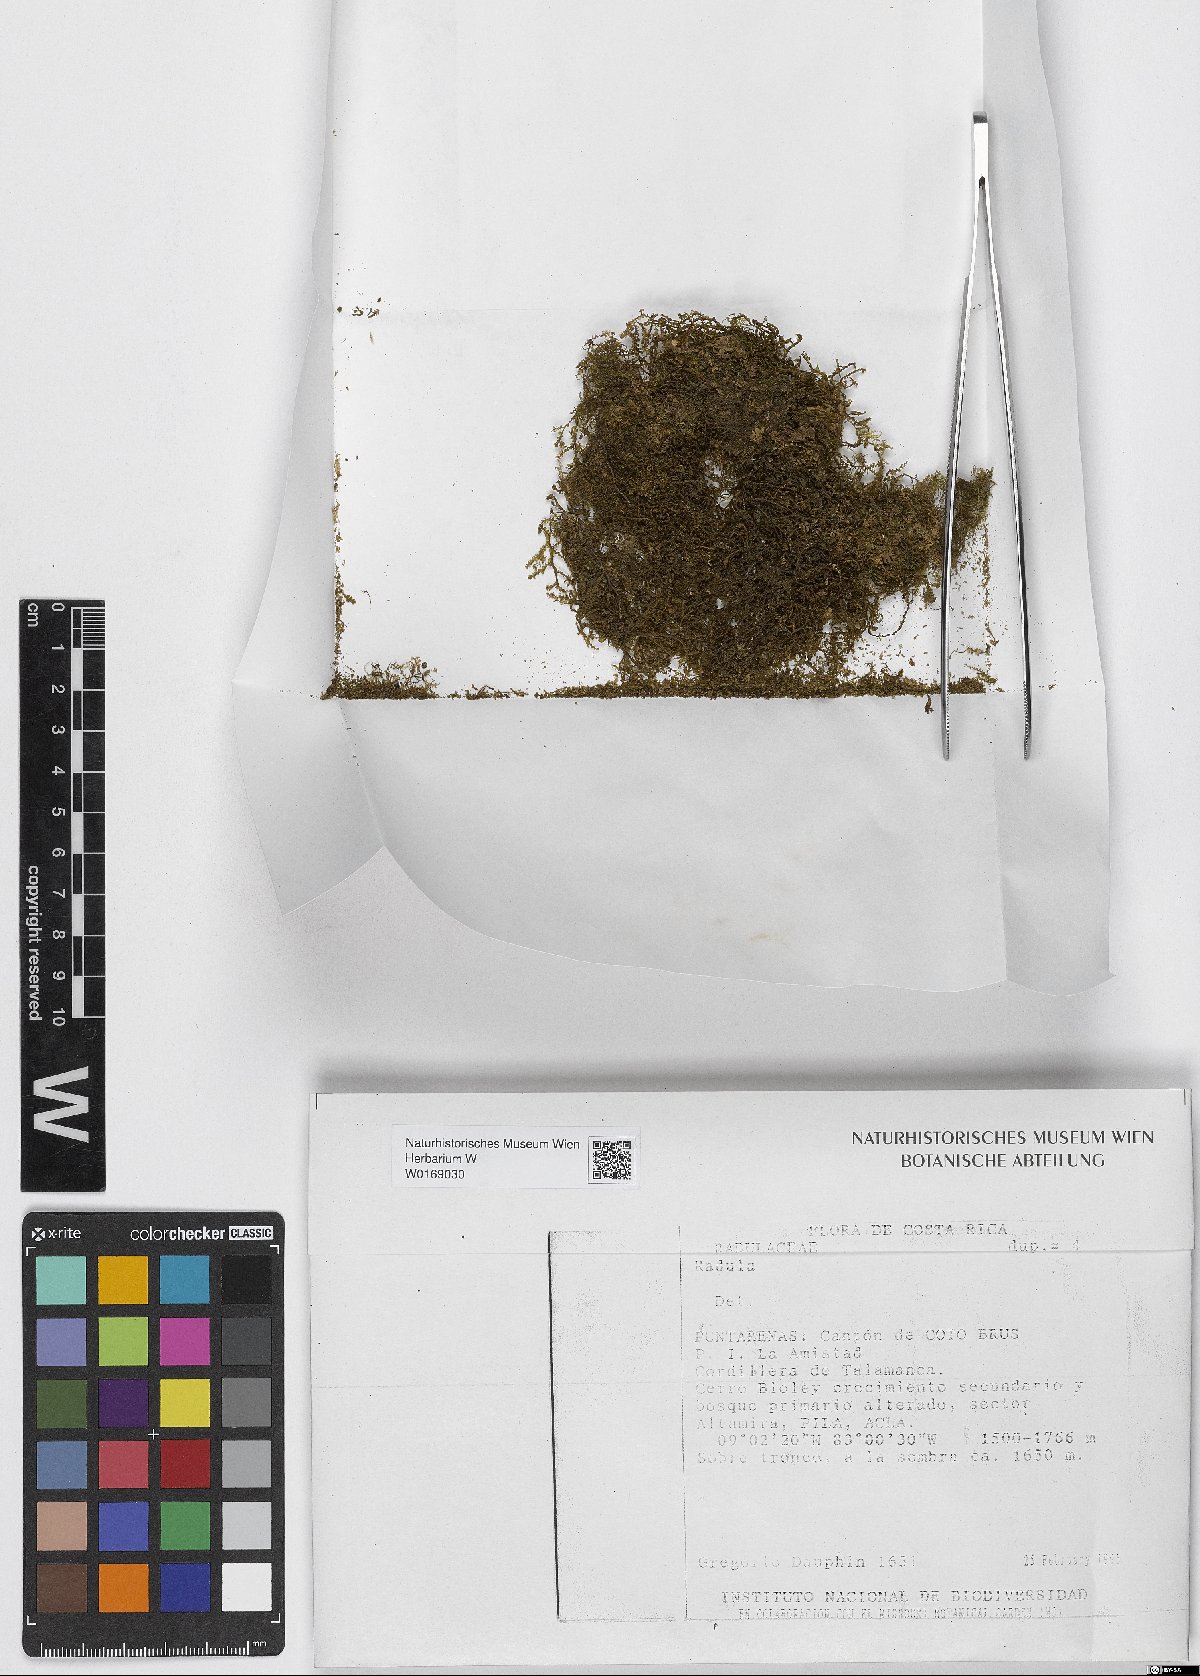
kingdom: Plantae
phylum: Marchantiophyta
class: Jungermanniopsida
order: Porellales
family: Radulaceae
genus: Radula
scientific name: Radula
